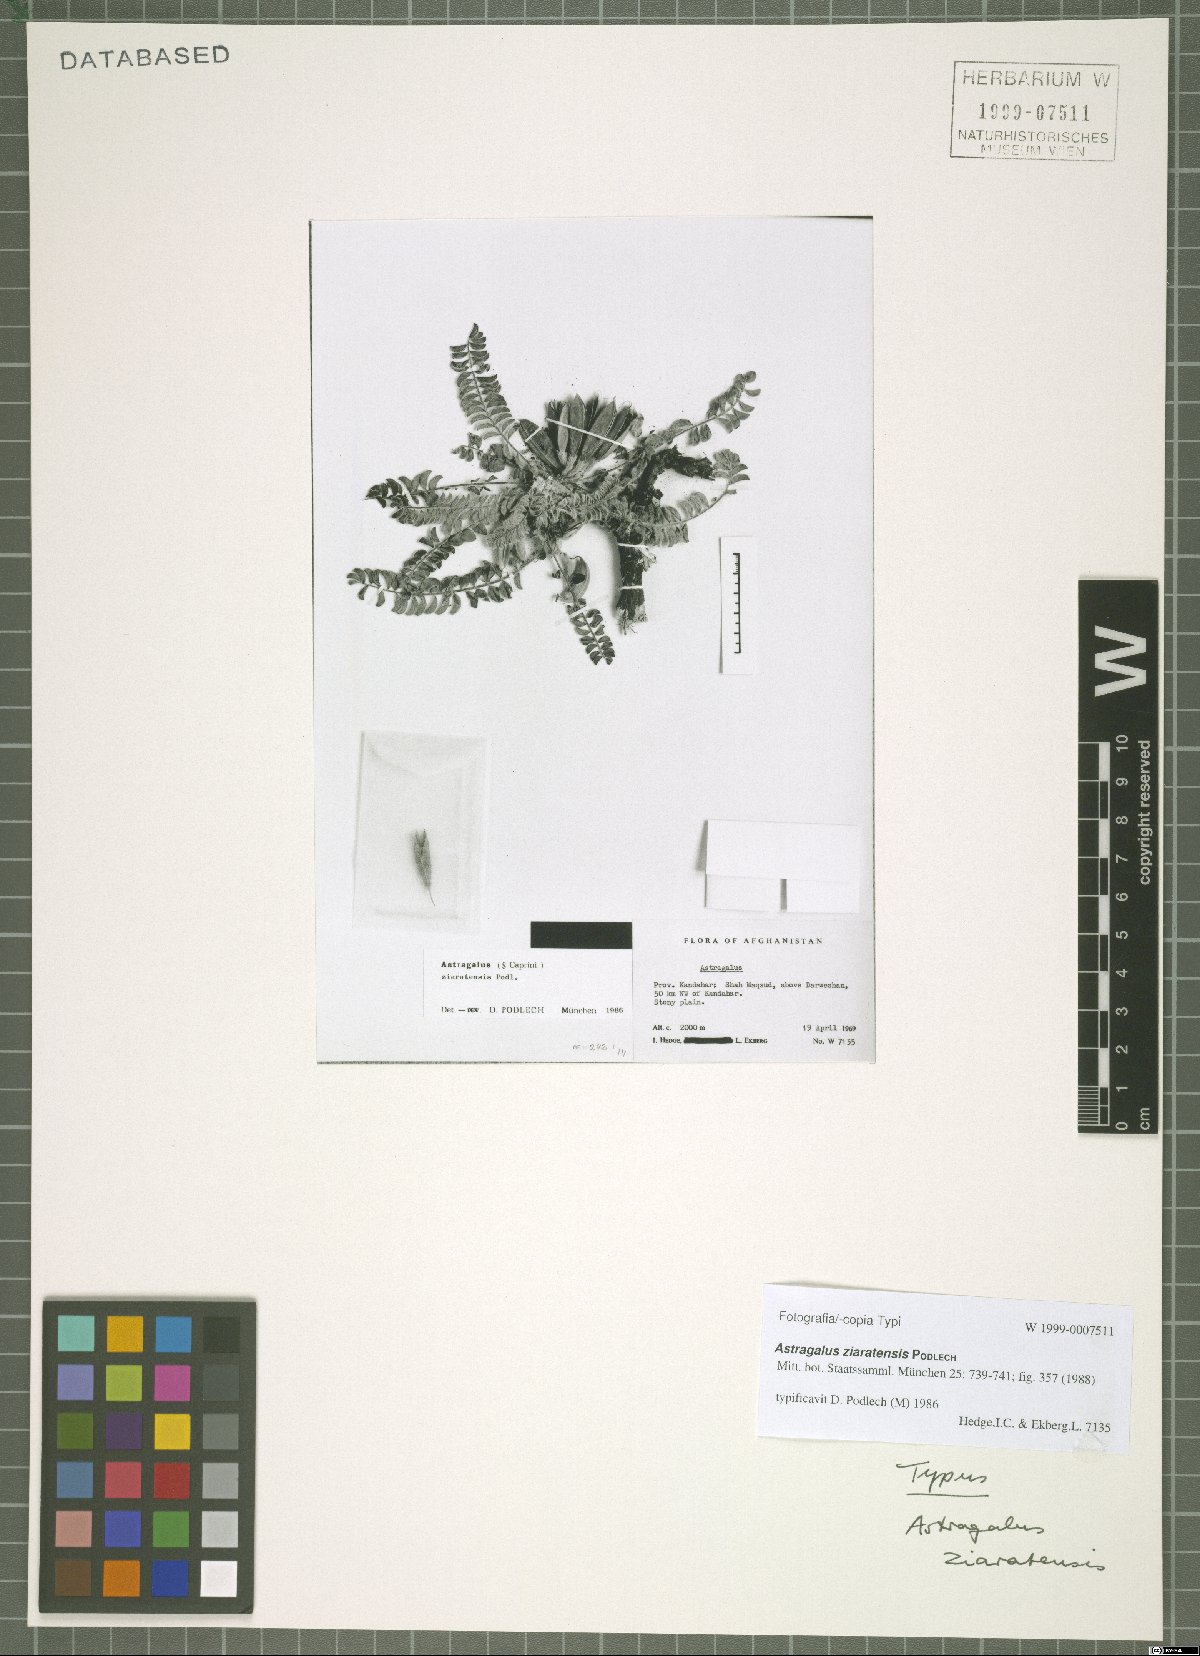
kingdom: Plantae
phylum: Tracheophyta
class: Magnoliopsida
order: Fabales
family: Fabaceae
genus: Astragalus
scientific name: Astragalus ziaratensis
